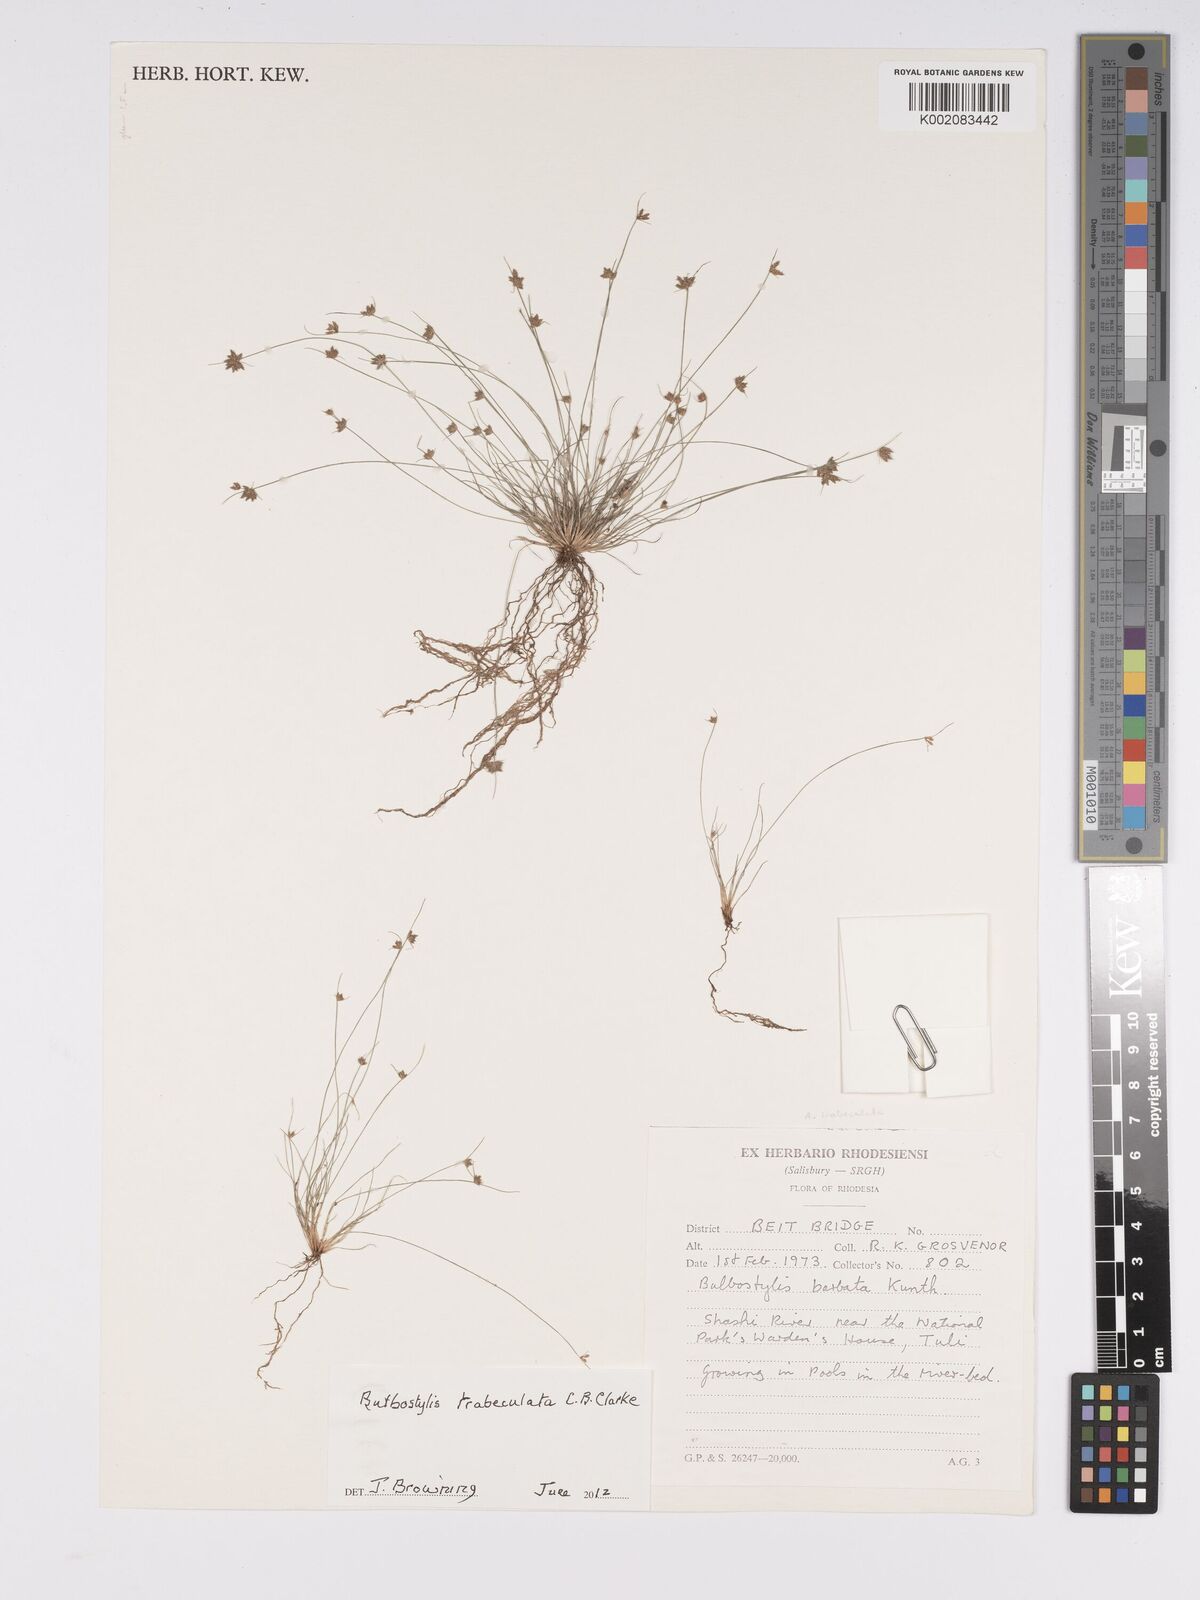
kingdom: Plantae
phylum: Tracheophyta
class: Liliopsida
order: Poales
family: Cyperaceae
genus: Bulbostylis
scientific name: Bulbostylis trabeculata
